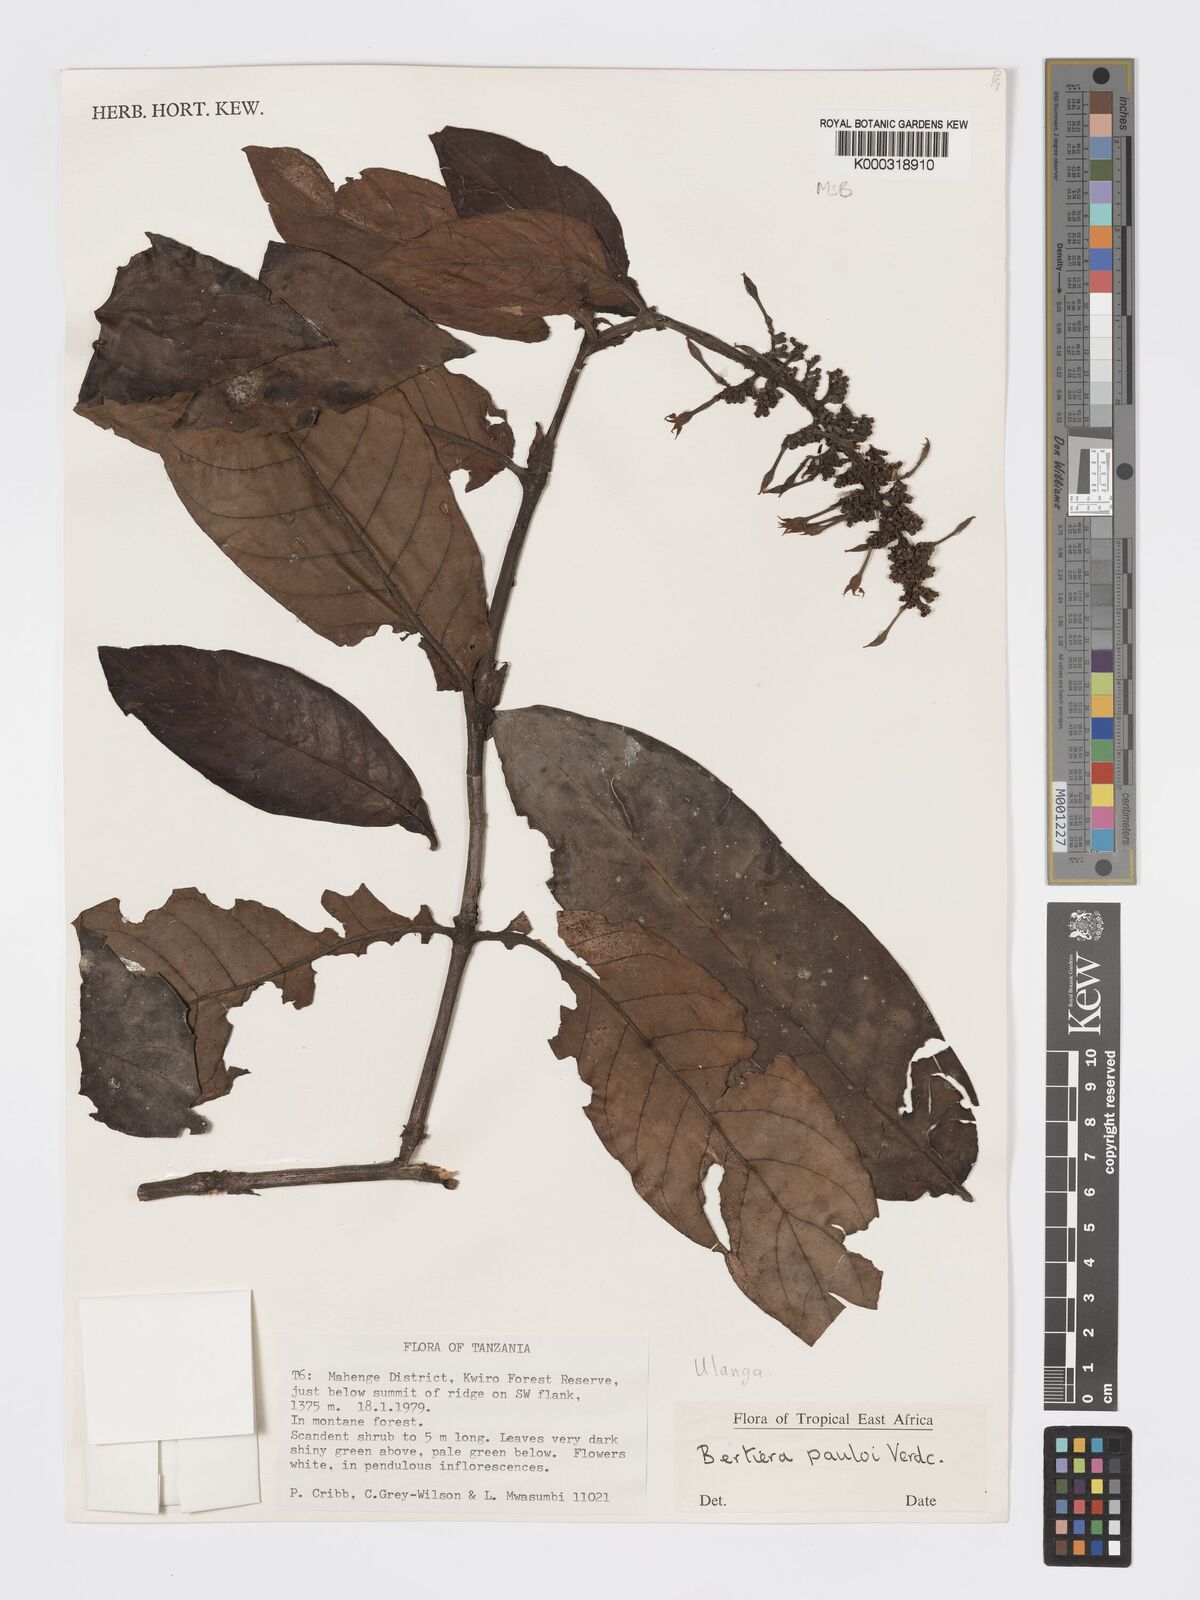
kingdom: Plantae
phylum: Tracheophyta
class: Magnoliopsida
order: Gentianales
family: Rubiaceae
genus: Bertiera
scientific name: Bertiera pauloi
